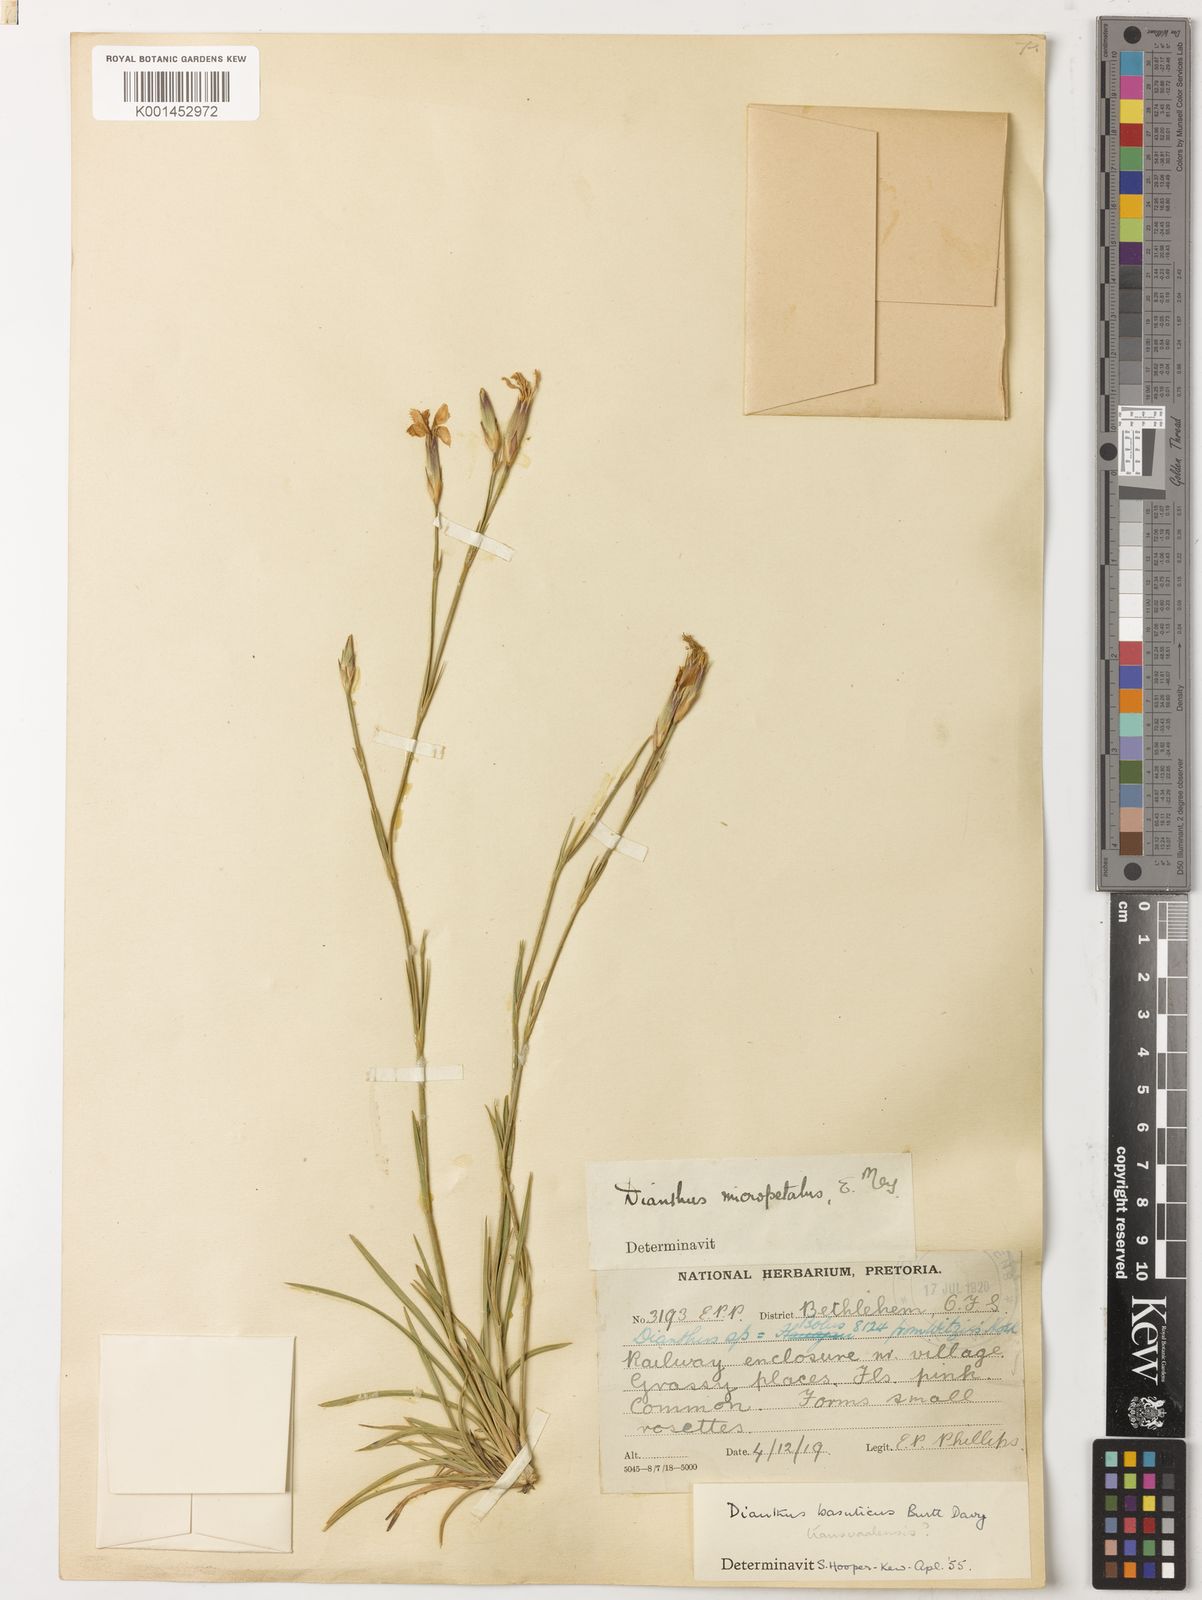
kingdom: Plantae
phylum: Tracheophyta
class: Magnoliopsida
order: Caryophyllales
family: Caryophyllaceae
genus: Dianthus
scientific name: Dianthus basuticus
